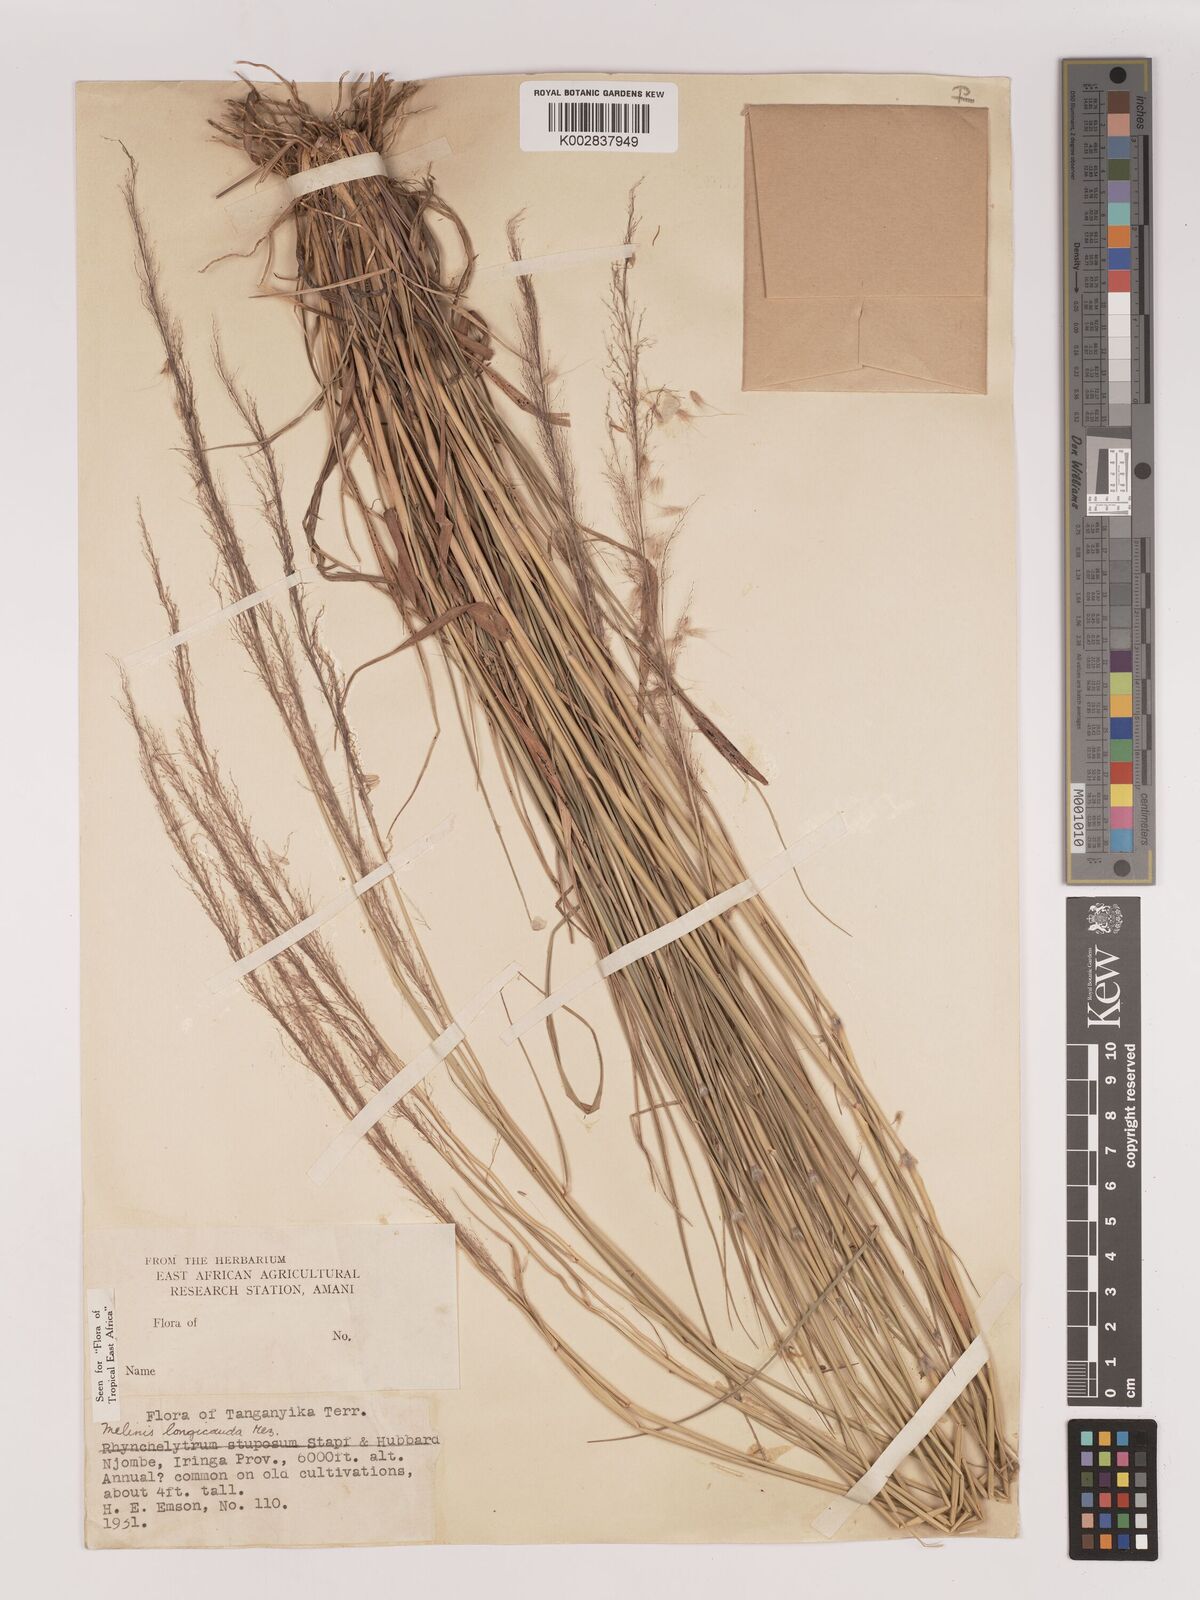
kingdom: Plantae
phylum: Tracheophyta
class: Liliopsida
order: Poales
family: Poaceae
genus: Melinis
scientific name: Melinis ambigua
